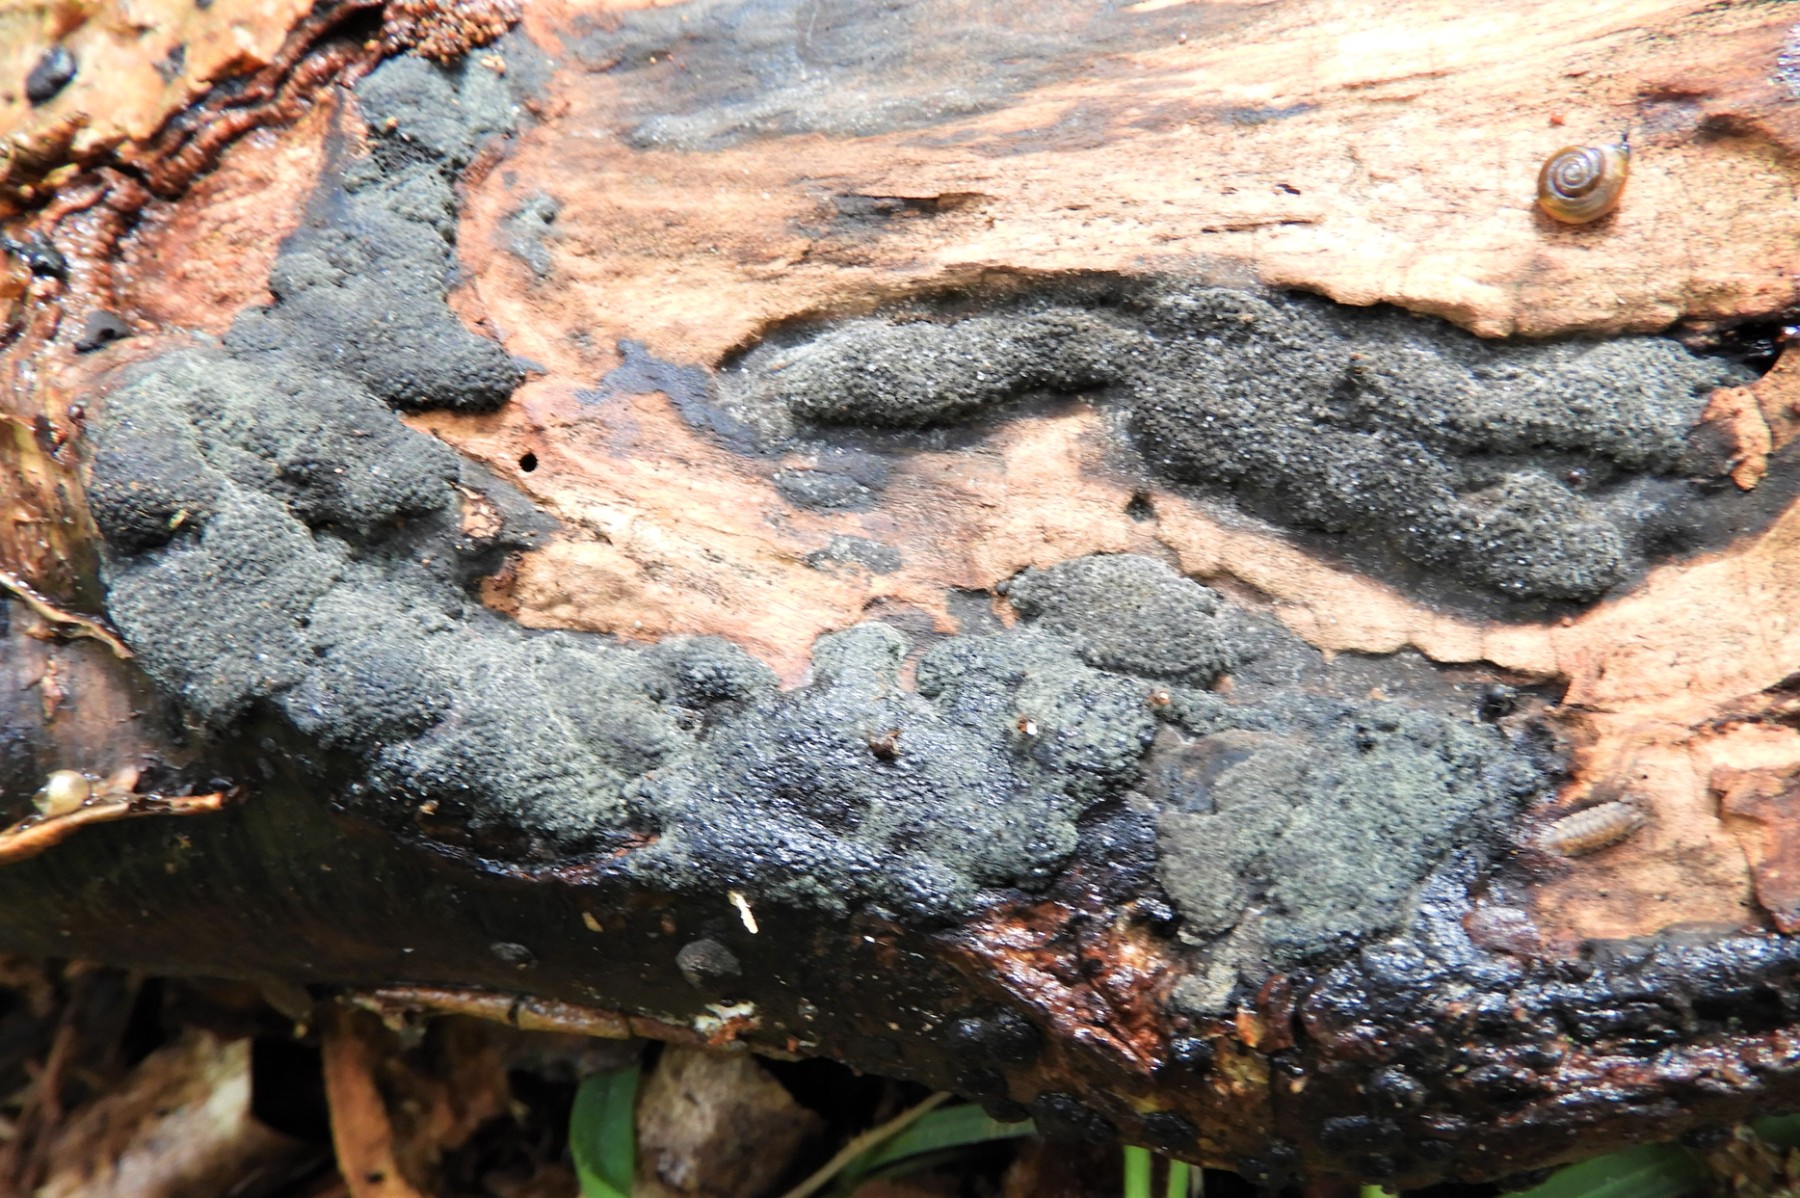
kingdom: Fungi
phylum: Ascomycota
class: Sordariomycetes
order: Xylariales
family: Hypoxylaceae
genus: Jackrogersella
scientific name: Jackrogersella multiformis
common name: foranderlig kulbær
